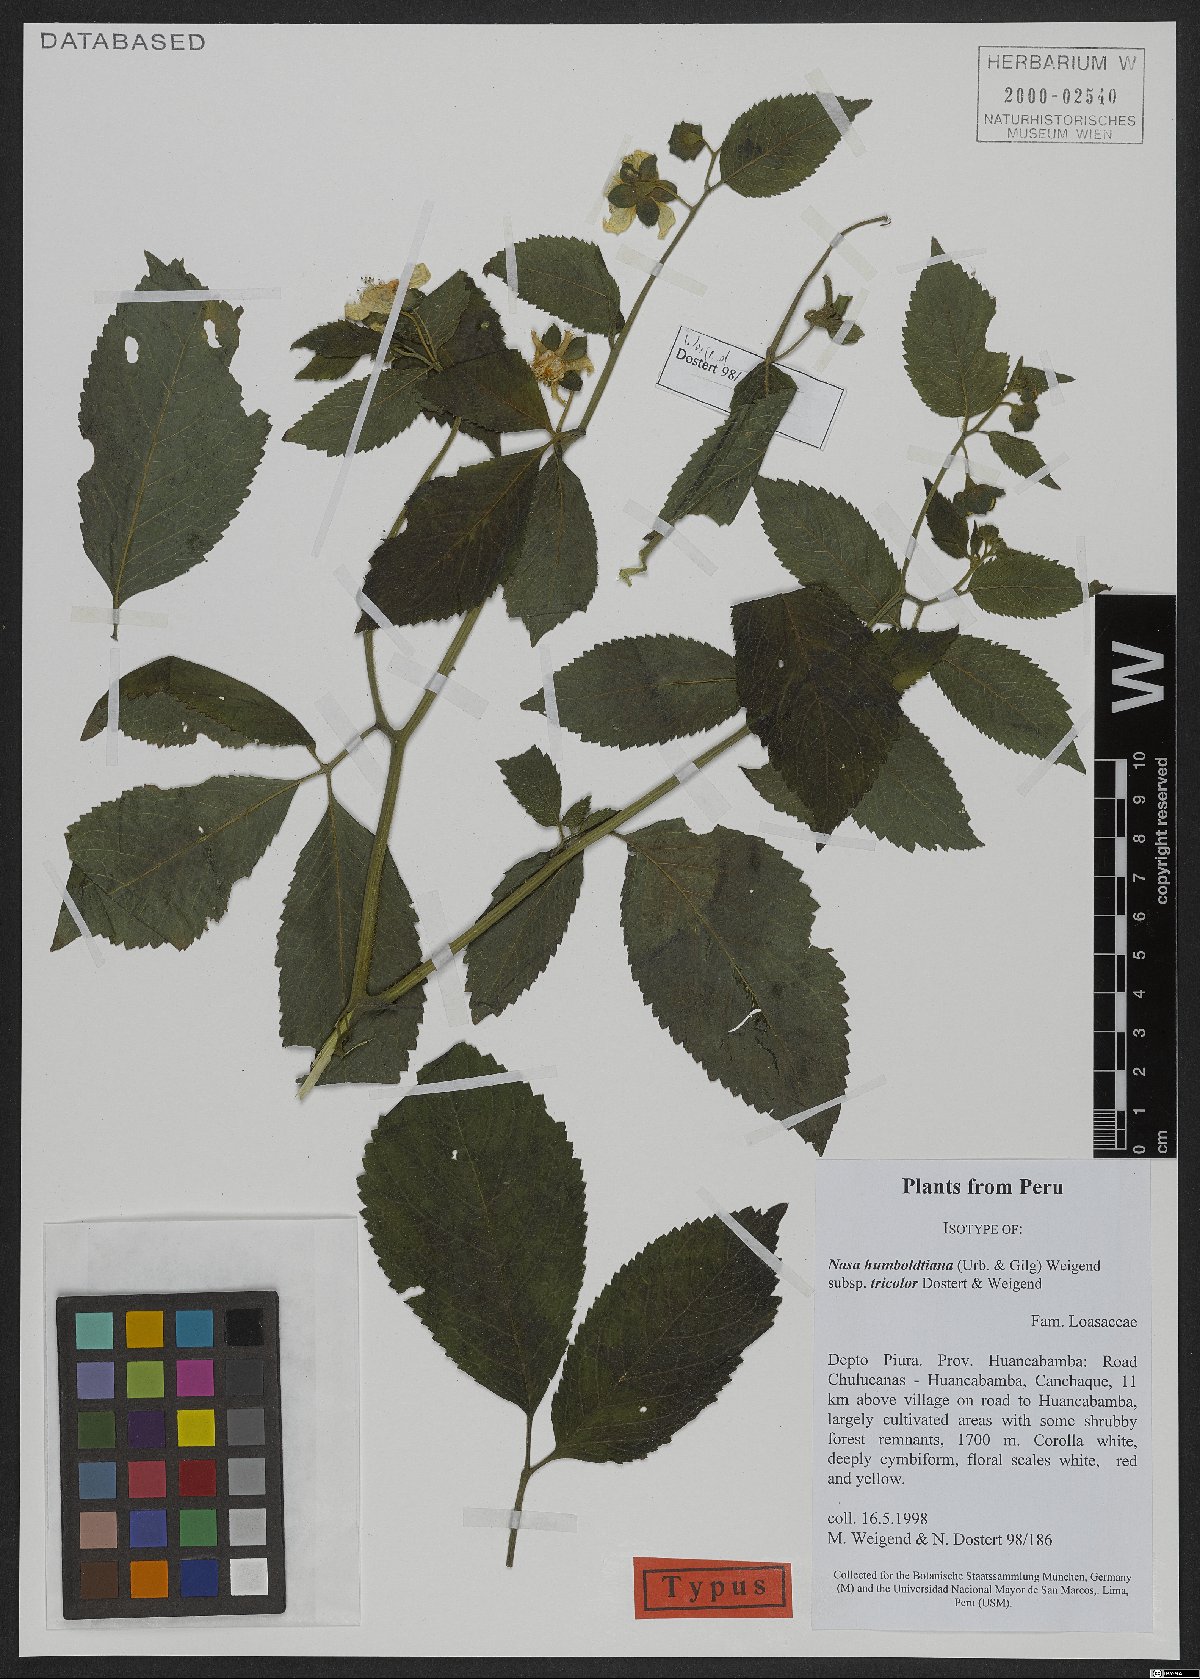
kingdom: Plantae
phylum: Tracheophyta
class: Magnoliopsida
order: Cornales
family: Loasaceae
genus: Nasa
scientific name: Nasa humboldtiana
